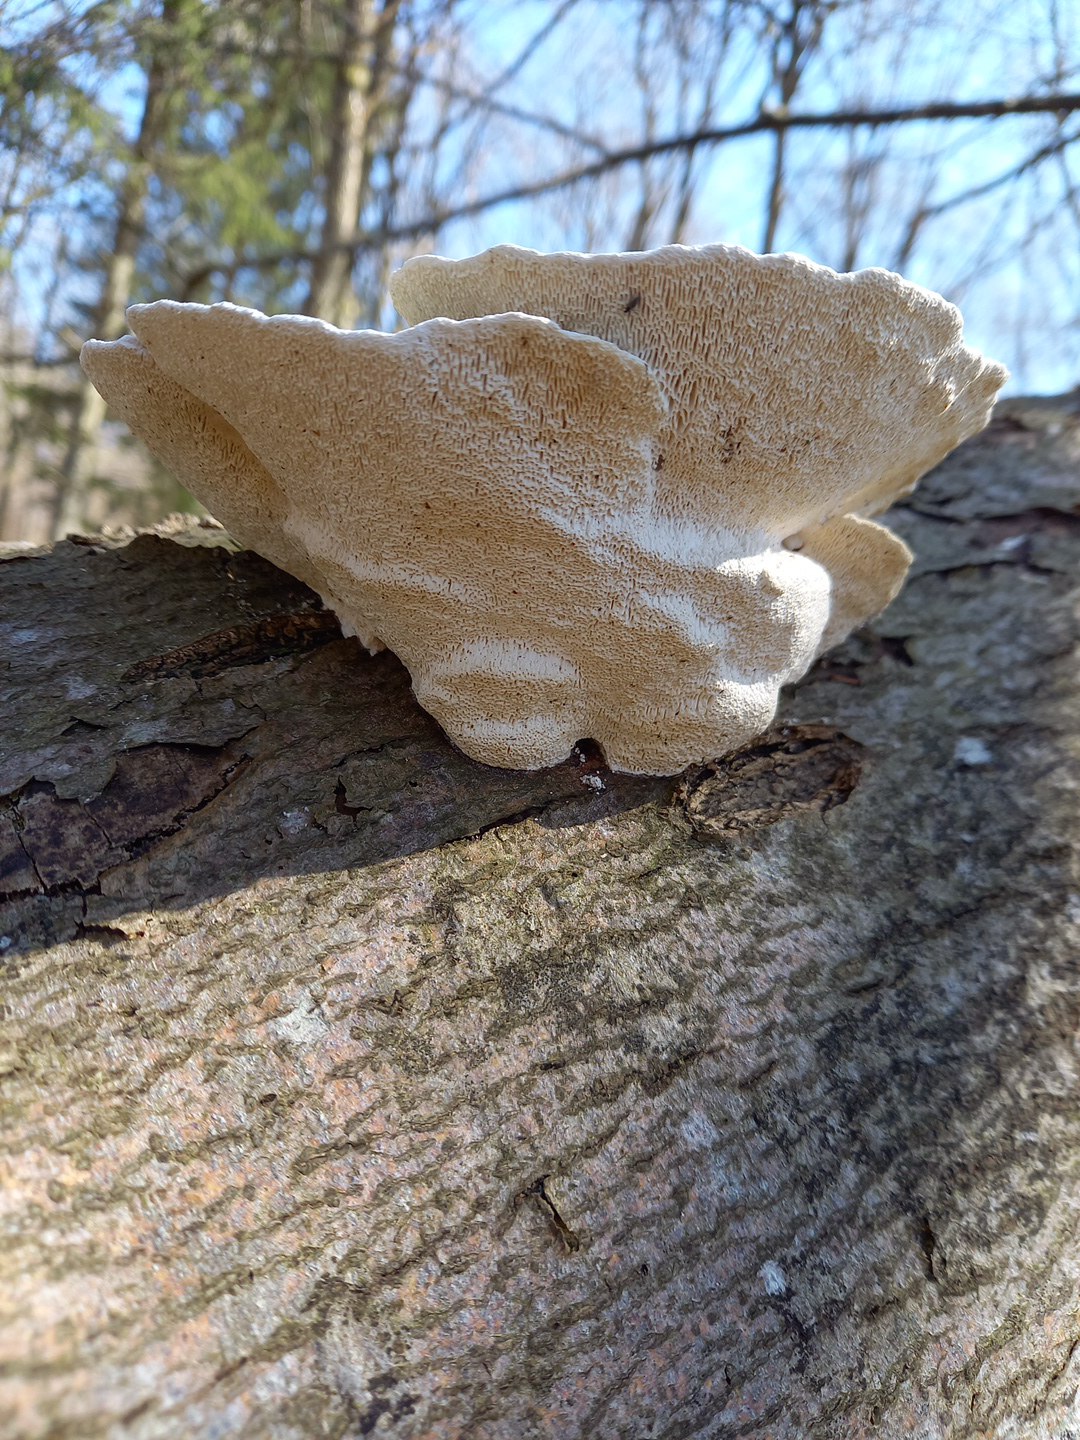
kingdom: Fungi
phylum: Basidiomycota
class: Agaricomycetes
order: Polyporales
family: Polyporaceae
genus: Trametes
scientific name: Trametes gibbosa
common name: puklet læderporesvamp
